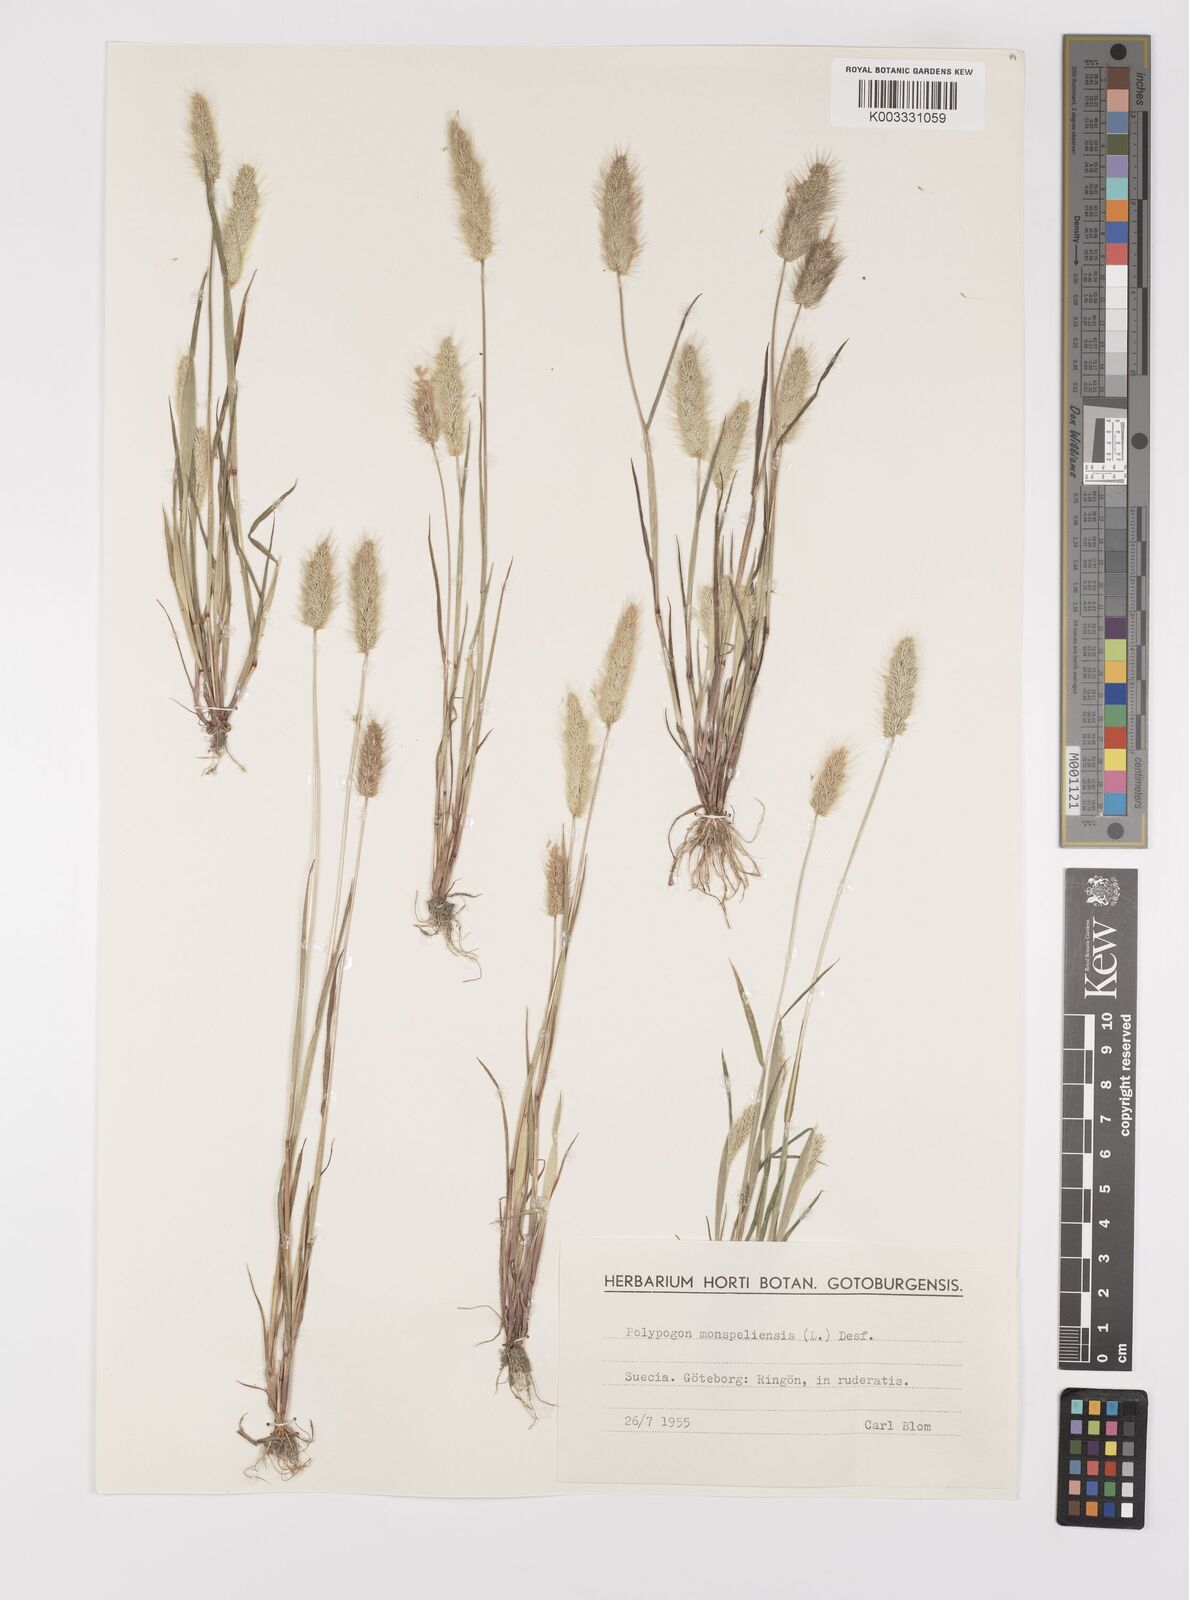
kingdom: Plantae
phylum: Tracheophyta
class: Liliopsida
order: Poales
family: Poaceae
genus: Polypogon
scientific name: Polypogon monspeliensis
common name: Annual rabbitsfoot grass
